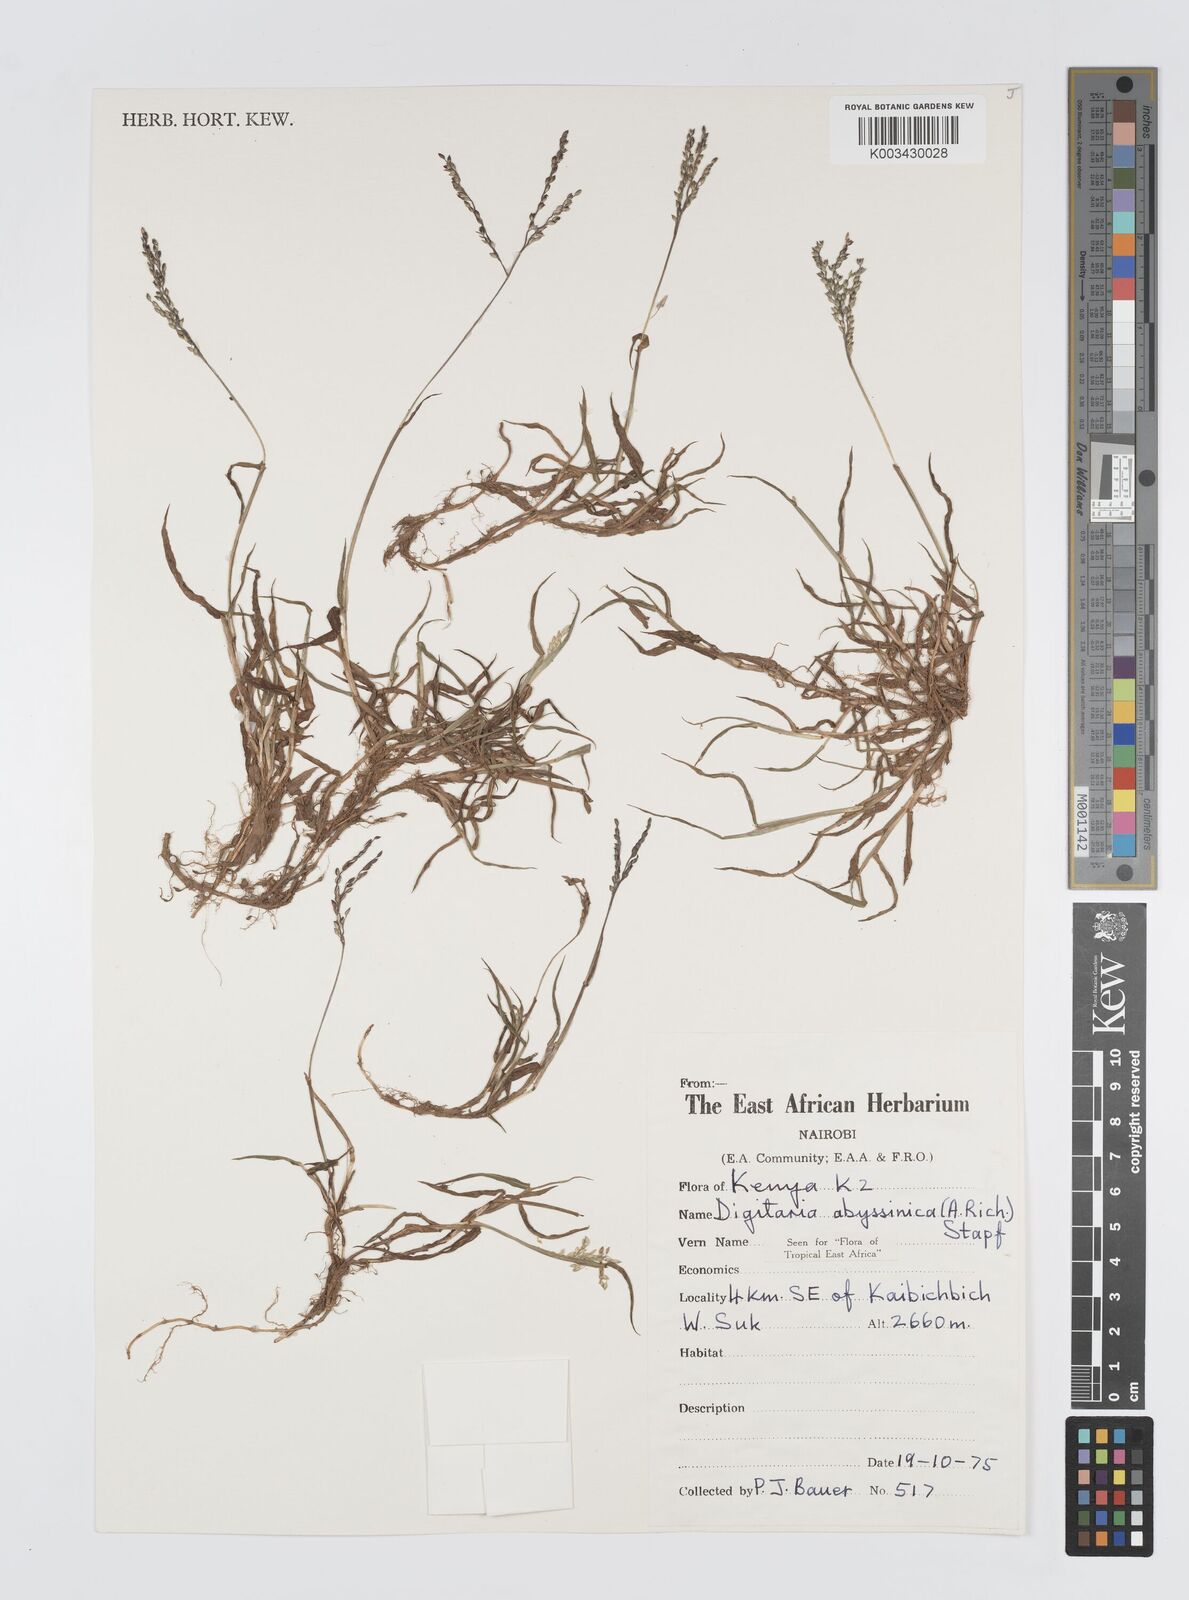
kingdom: Plantae
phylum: Tracheophyta
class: Liliopsida
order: Poales
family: Poaceae
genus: Digitaria
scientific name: Digitaria abyssinica
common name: African couchgrass
